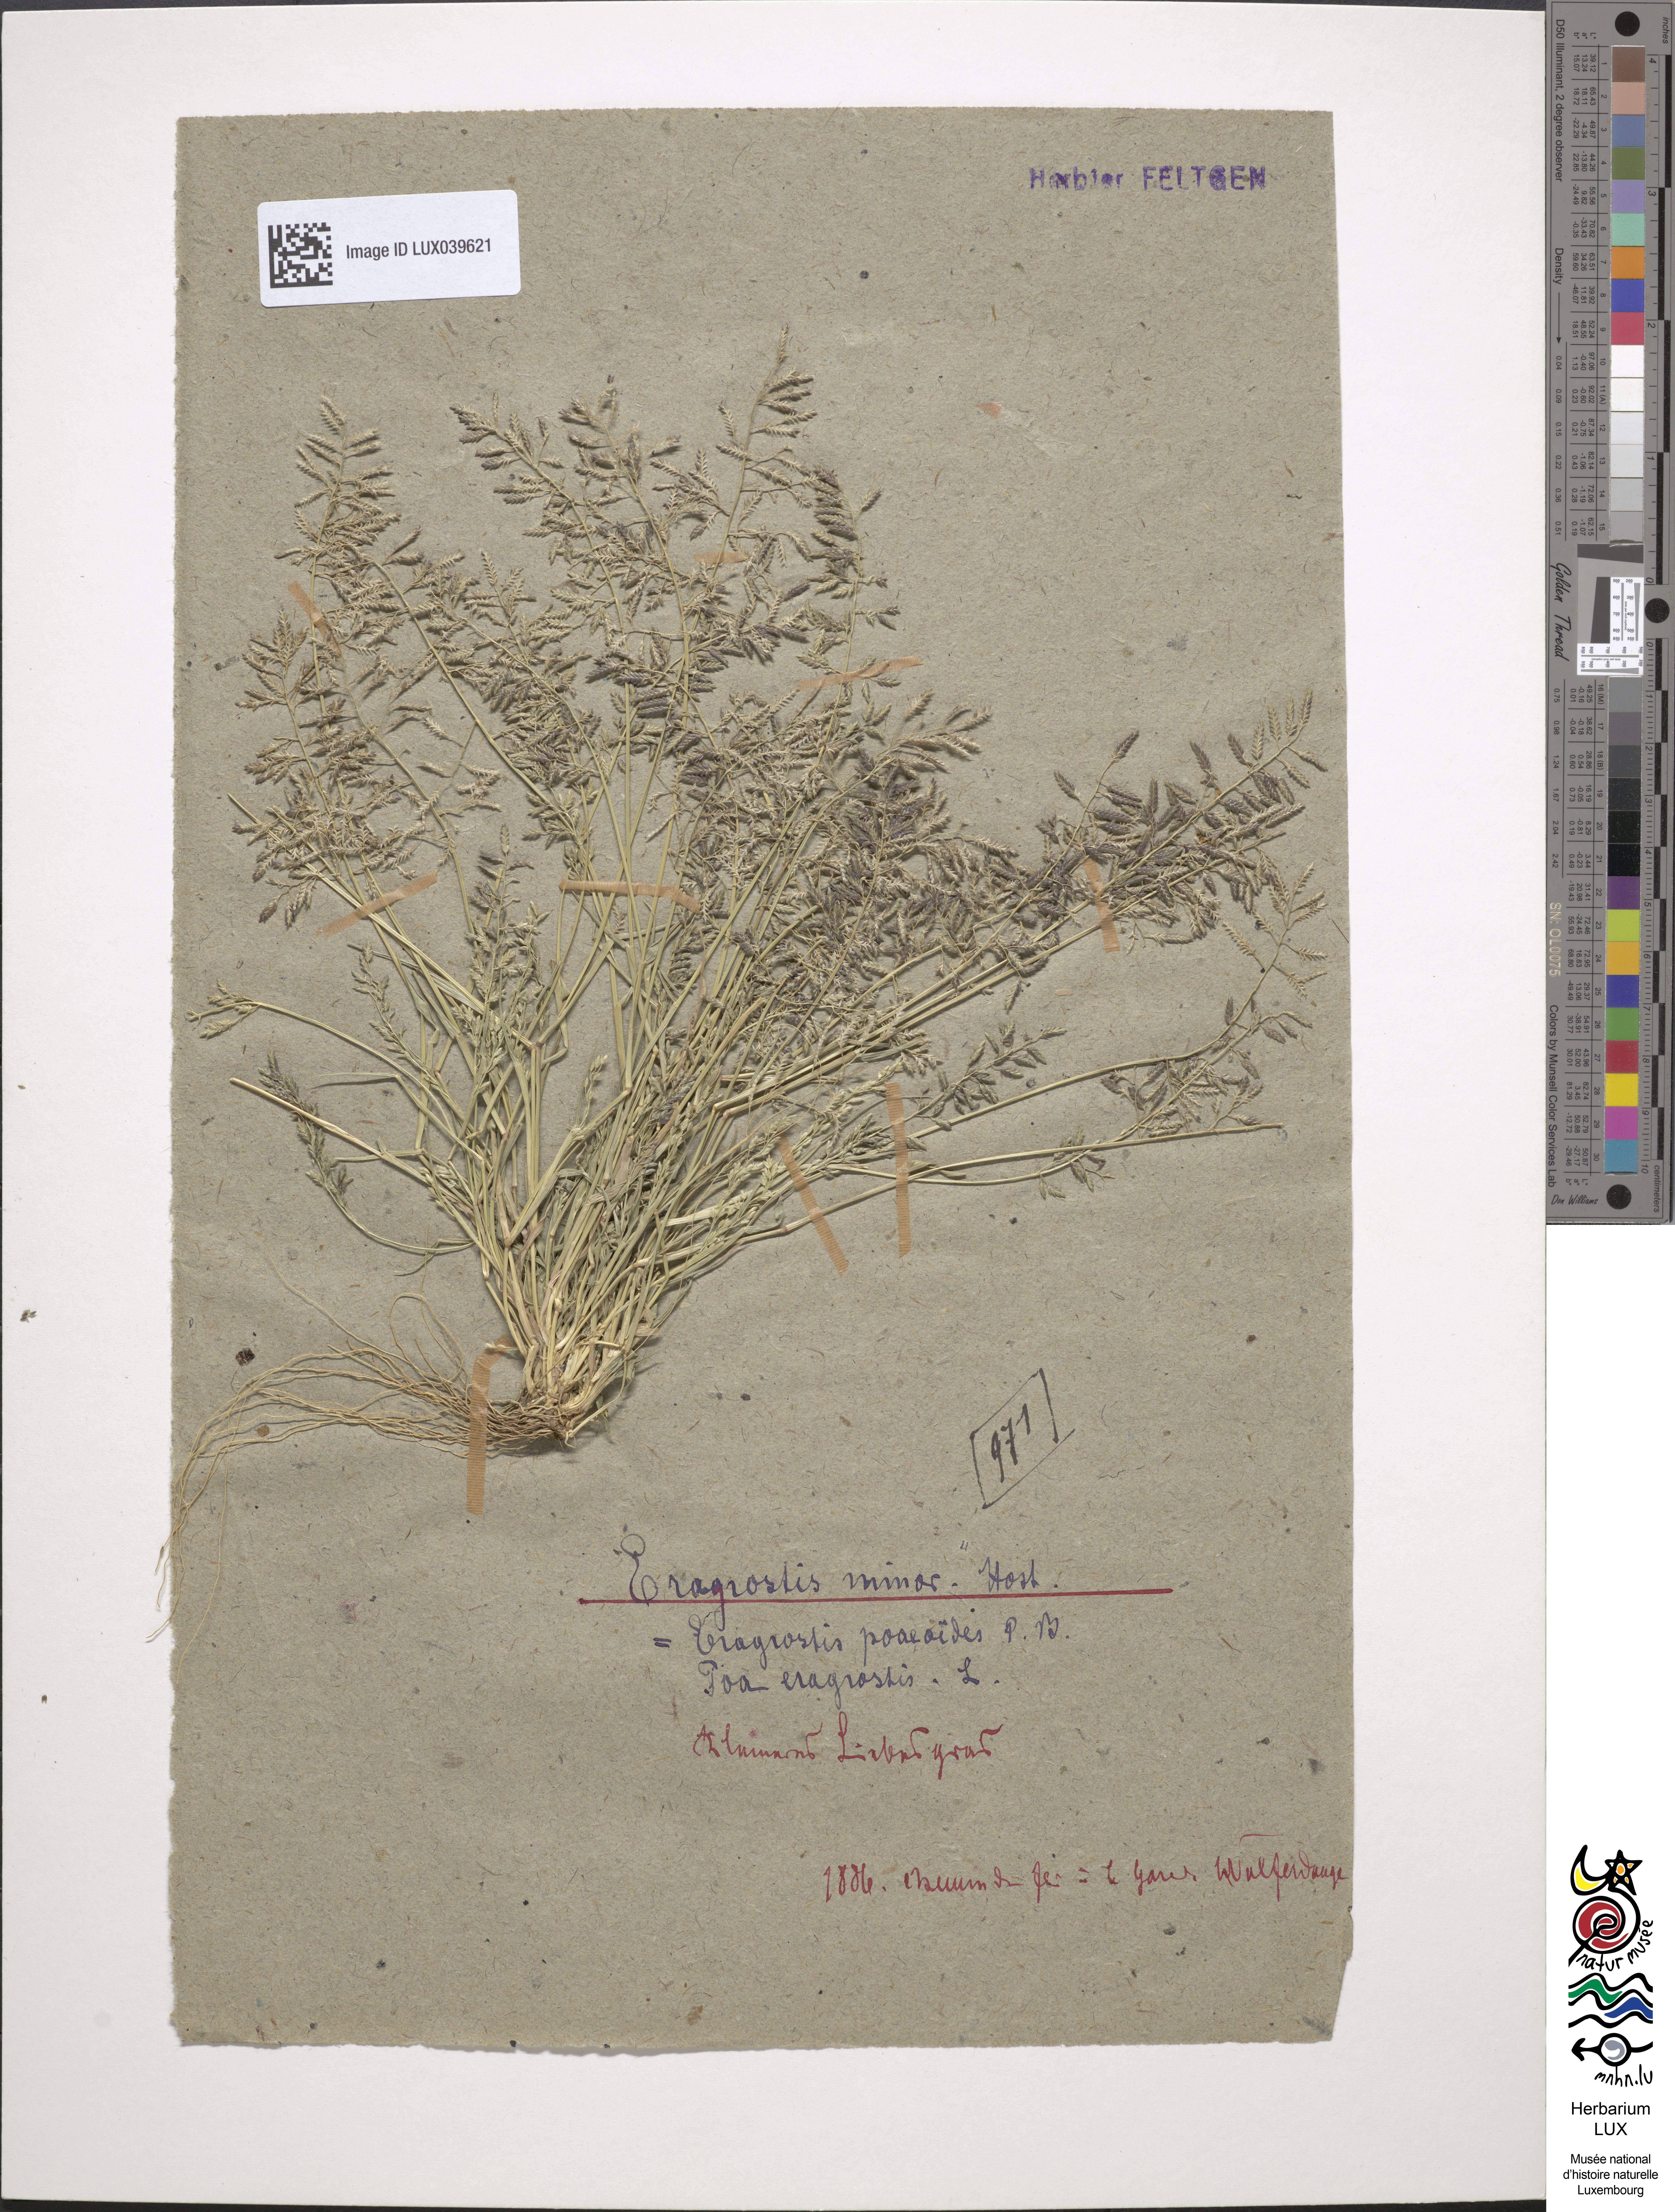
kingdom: Plantae
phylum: Tracheophyta
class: Liliopsida
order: Poales
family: Poaceae
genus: Eragrostis
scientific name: Eragrostis minor
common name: Small love-grass
